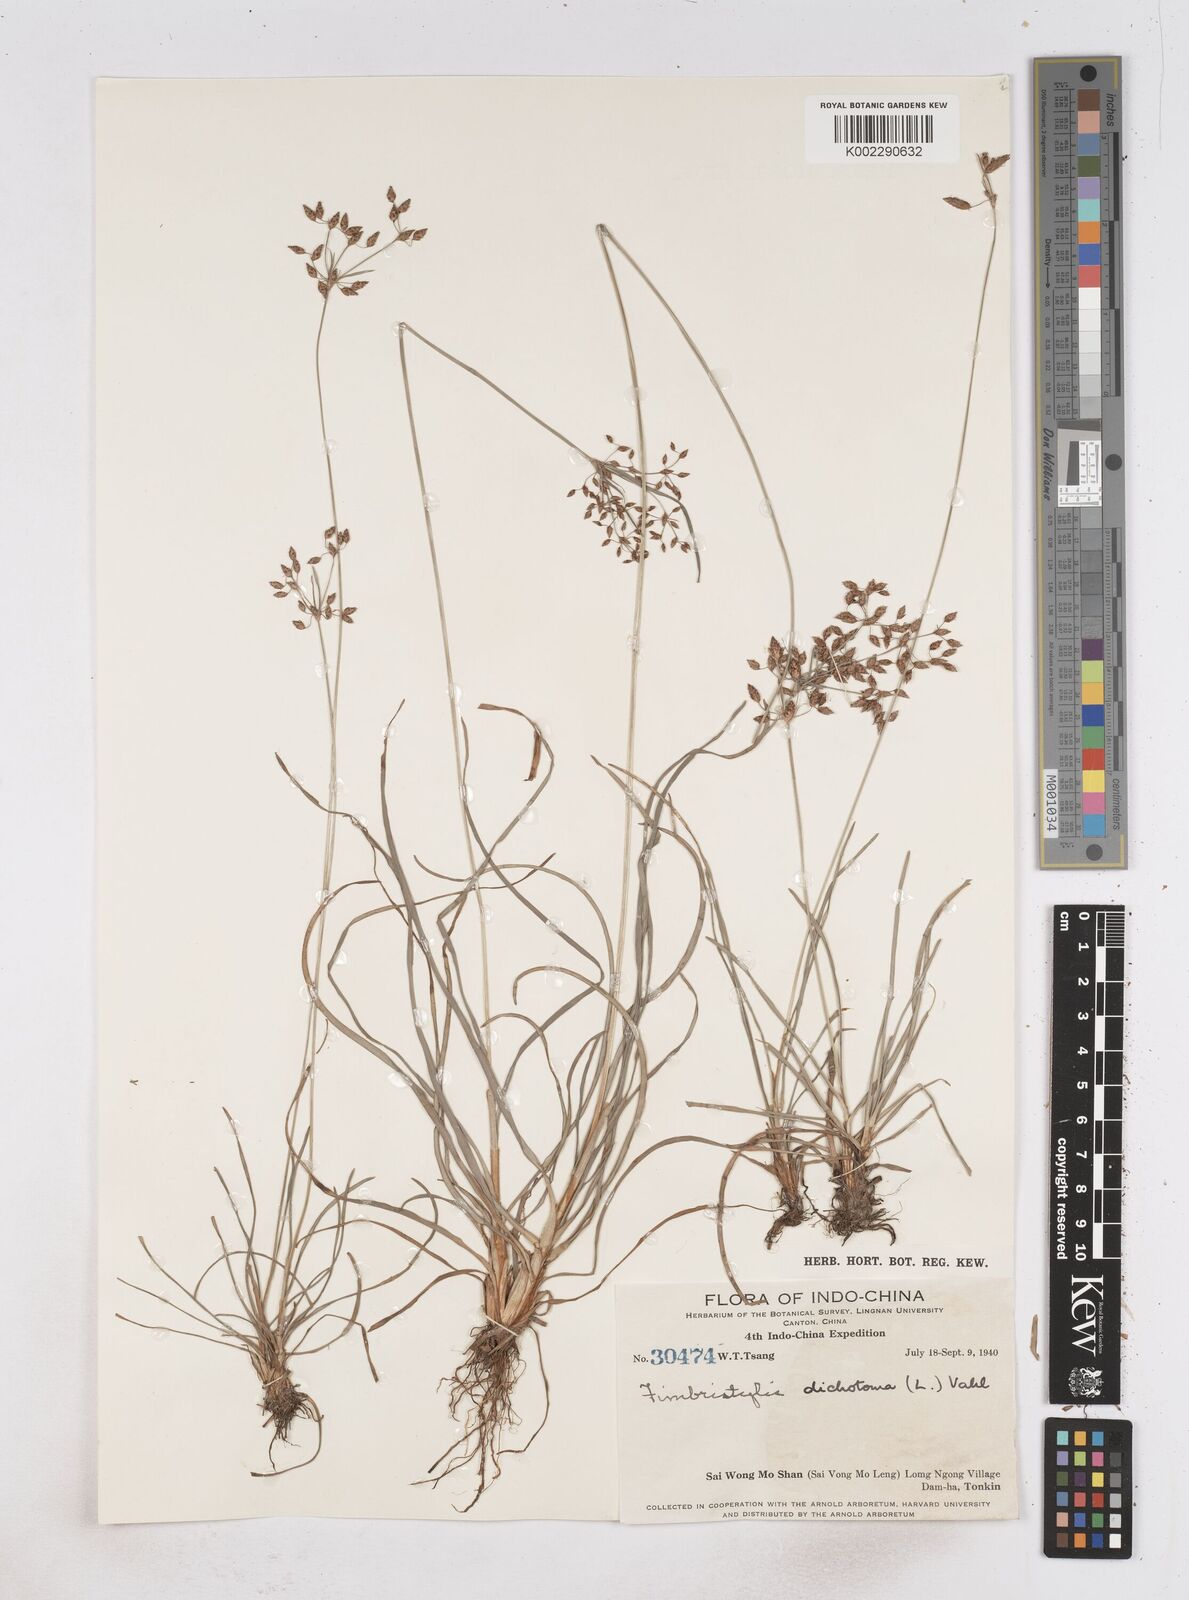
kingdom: Plantae
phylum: Tracheophyta
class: Liliopsida
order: Poales
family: Cyperaceae
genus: Fimbristylis
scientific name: Fimbristylis dichotoma
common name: Forked fimbry
